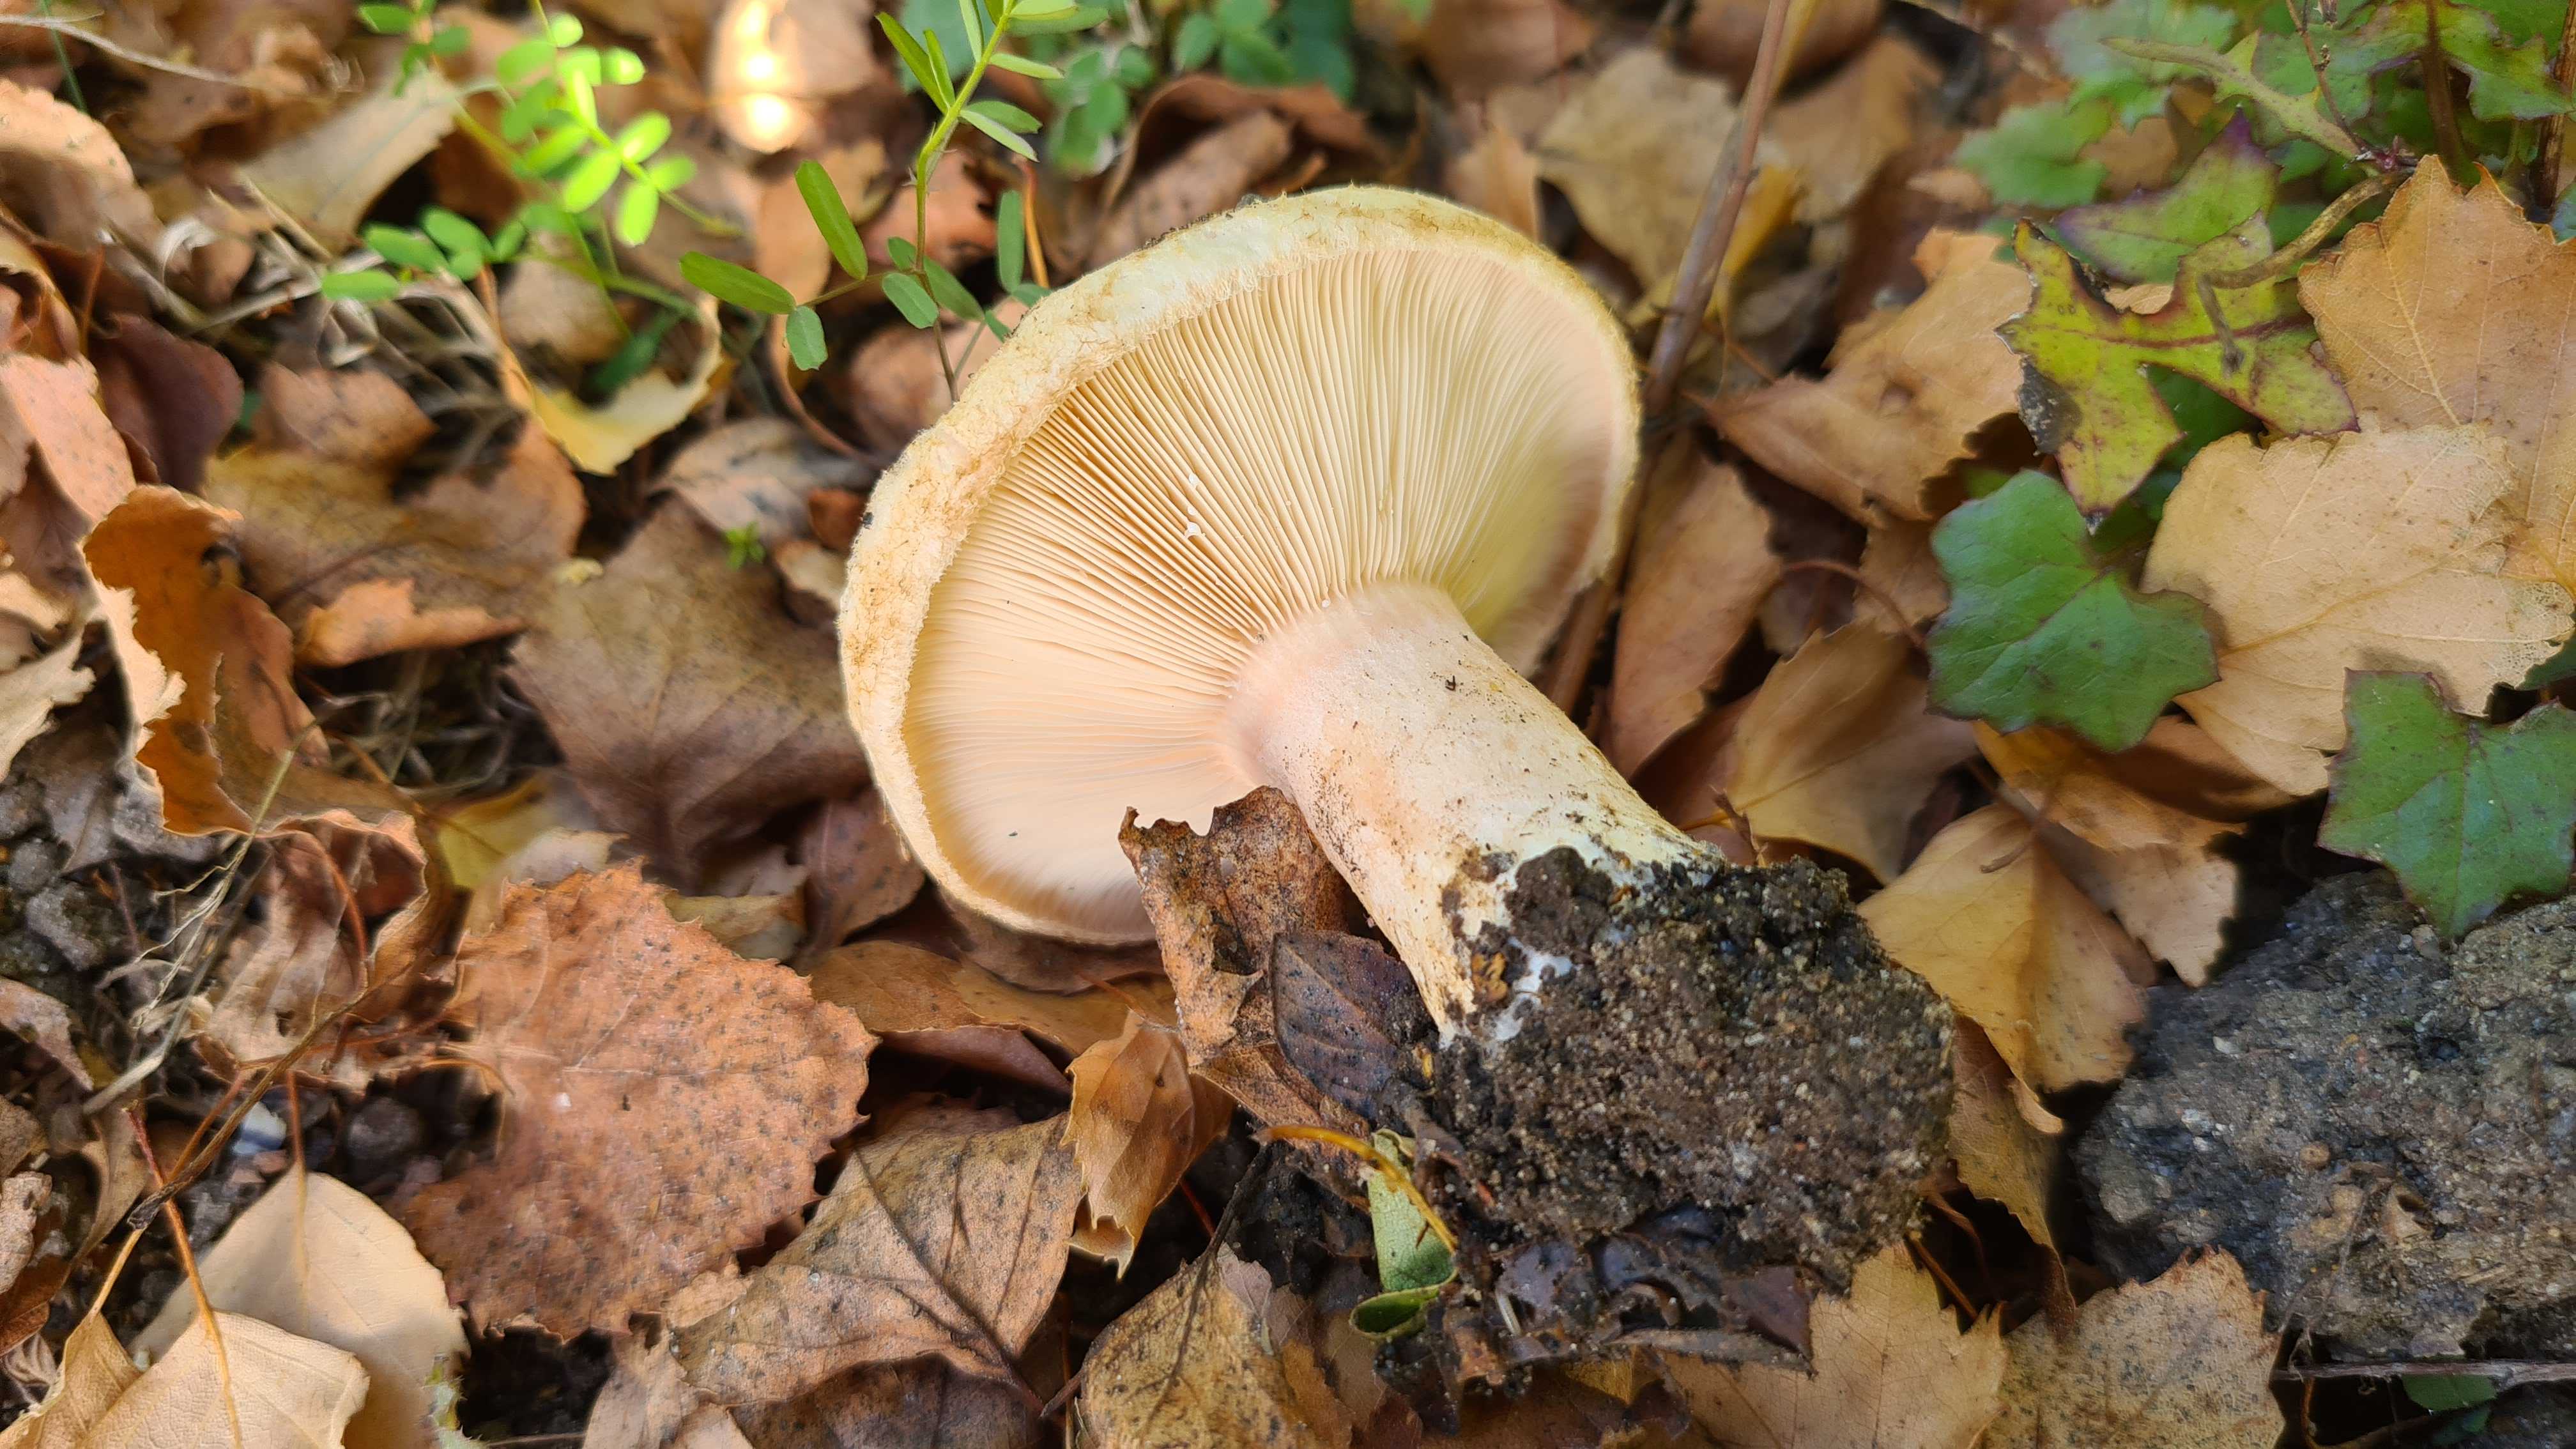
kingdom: Fungi
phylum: Basidiomycota
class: Agaricomycetes
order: Russulales
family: Russulaceae
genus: Lactarius
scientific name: Lactarius pubescens
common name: dunet mælkehat
